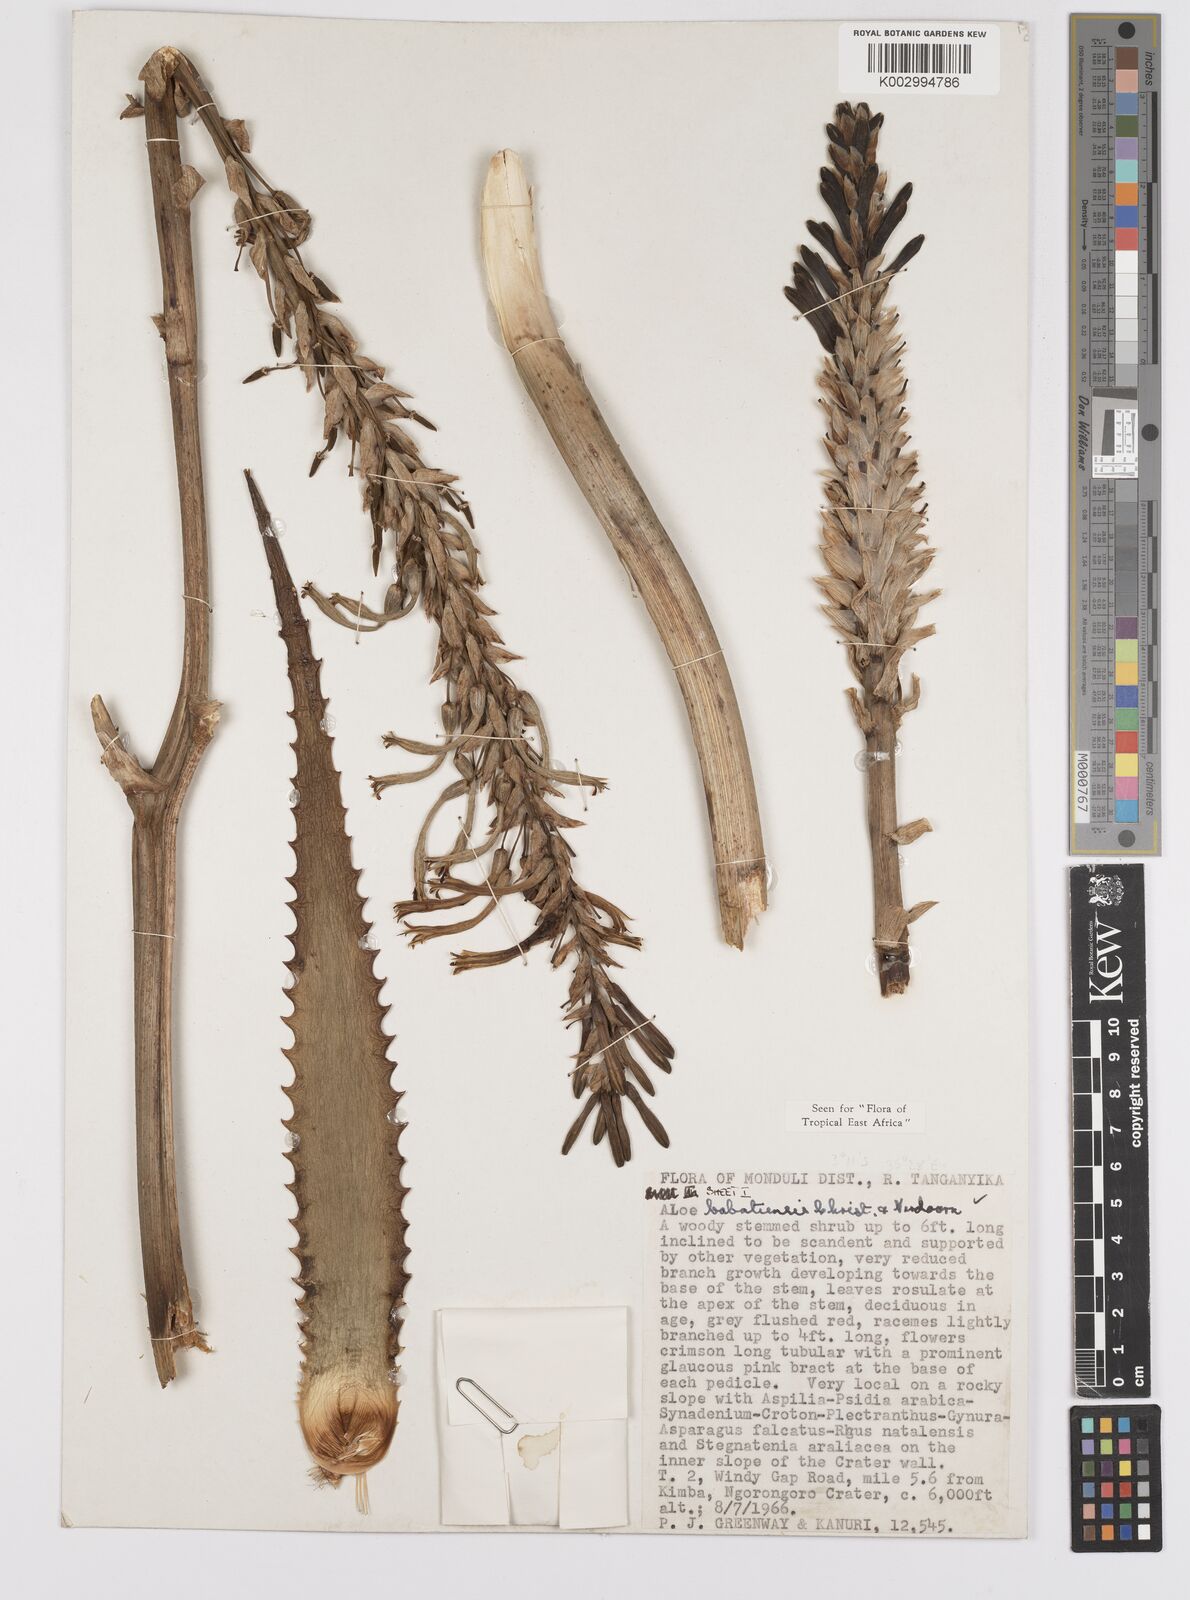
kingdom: Plantae
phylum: Tracheophyta
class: Liliopsida
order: Asparagales
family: Asphodelaceae
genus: Aloe
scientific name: Aloe babatiensis
